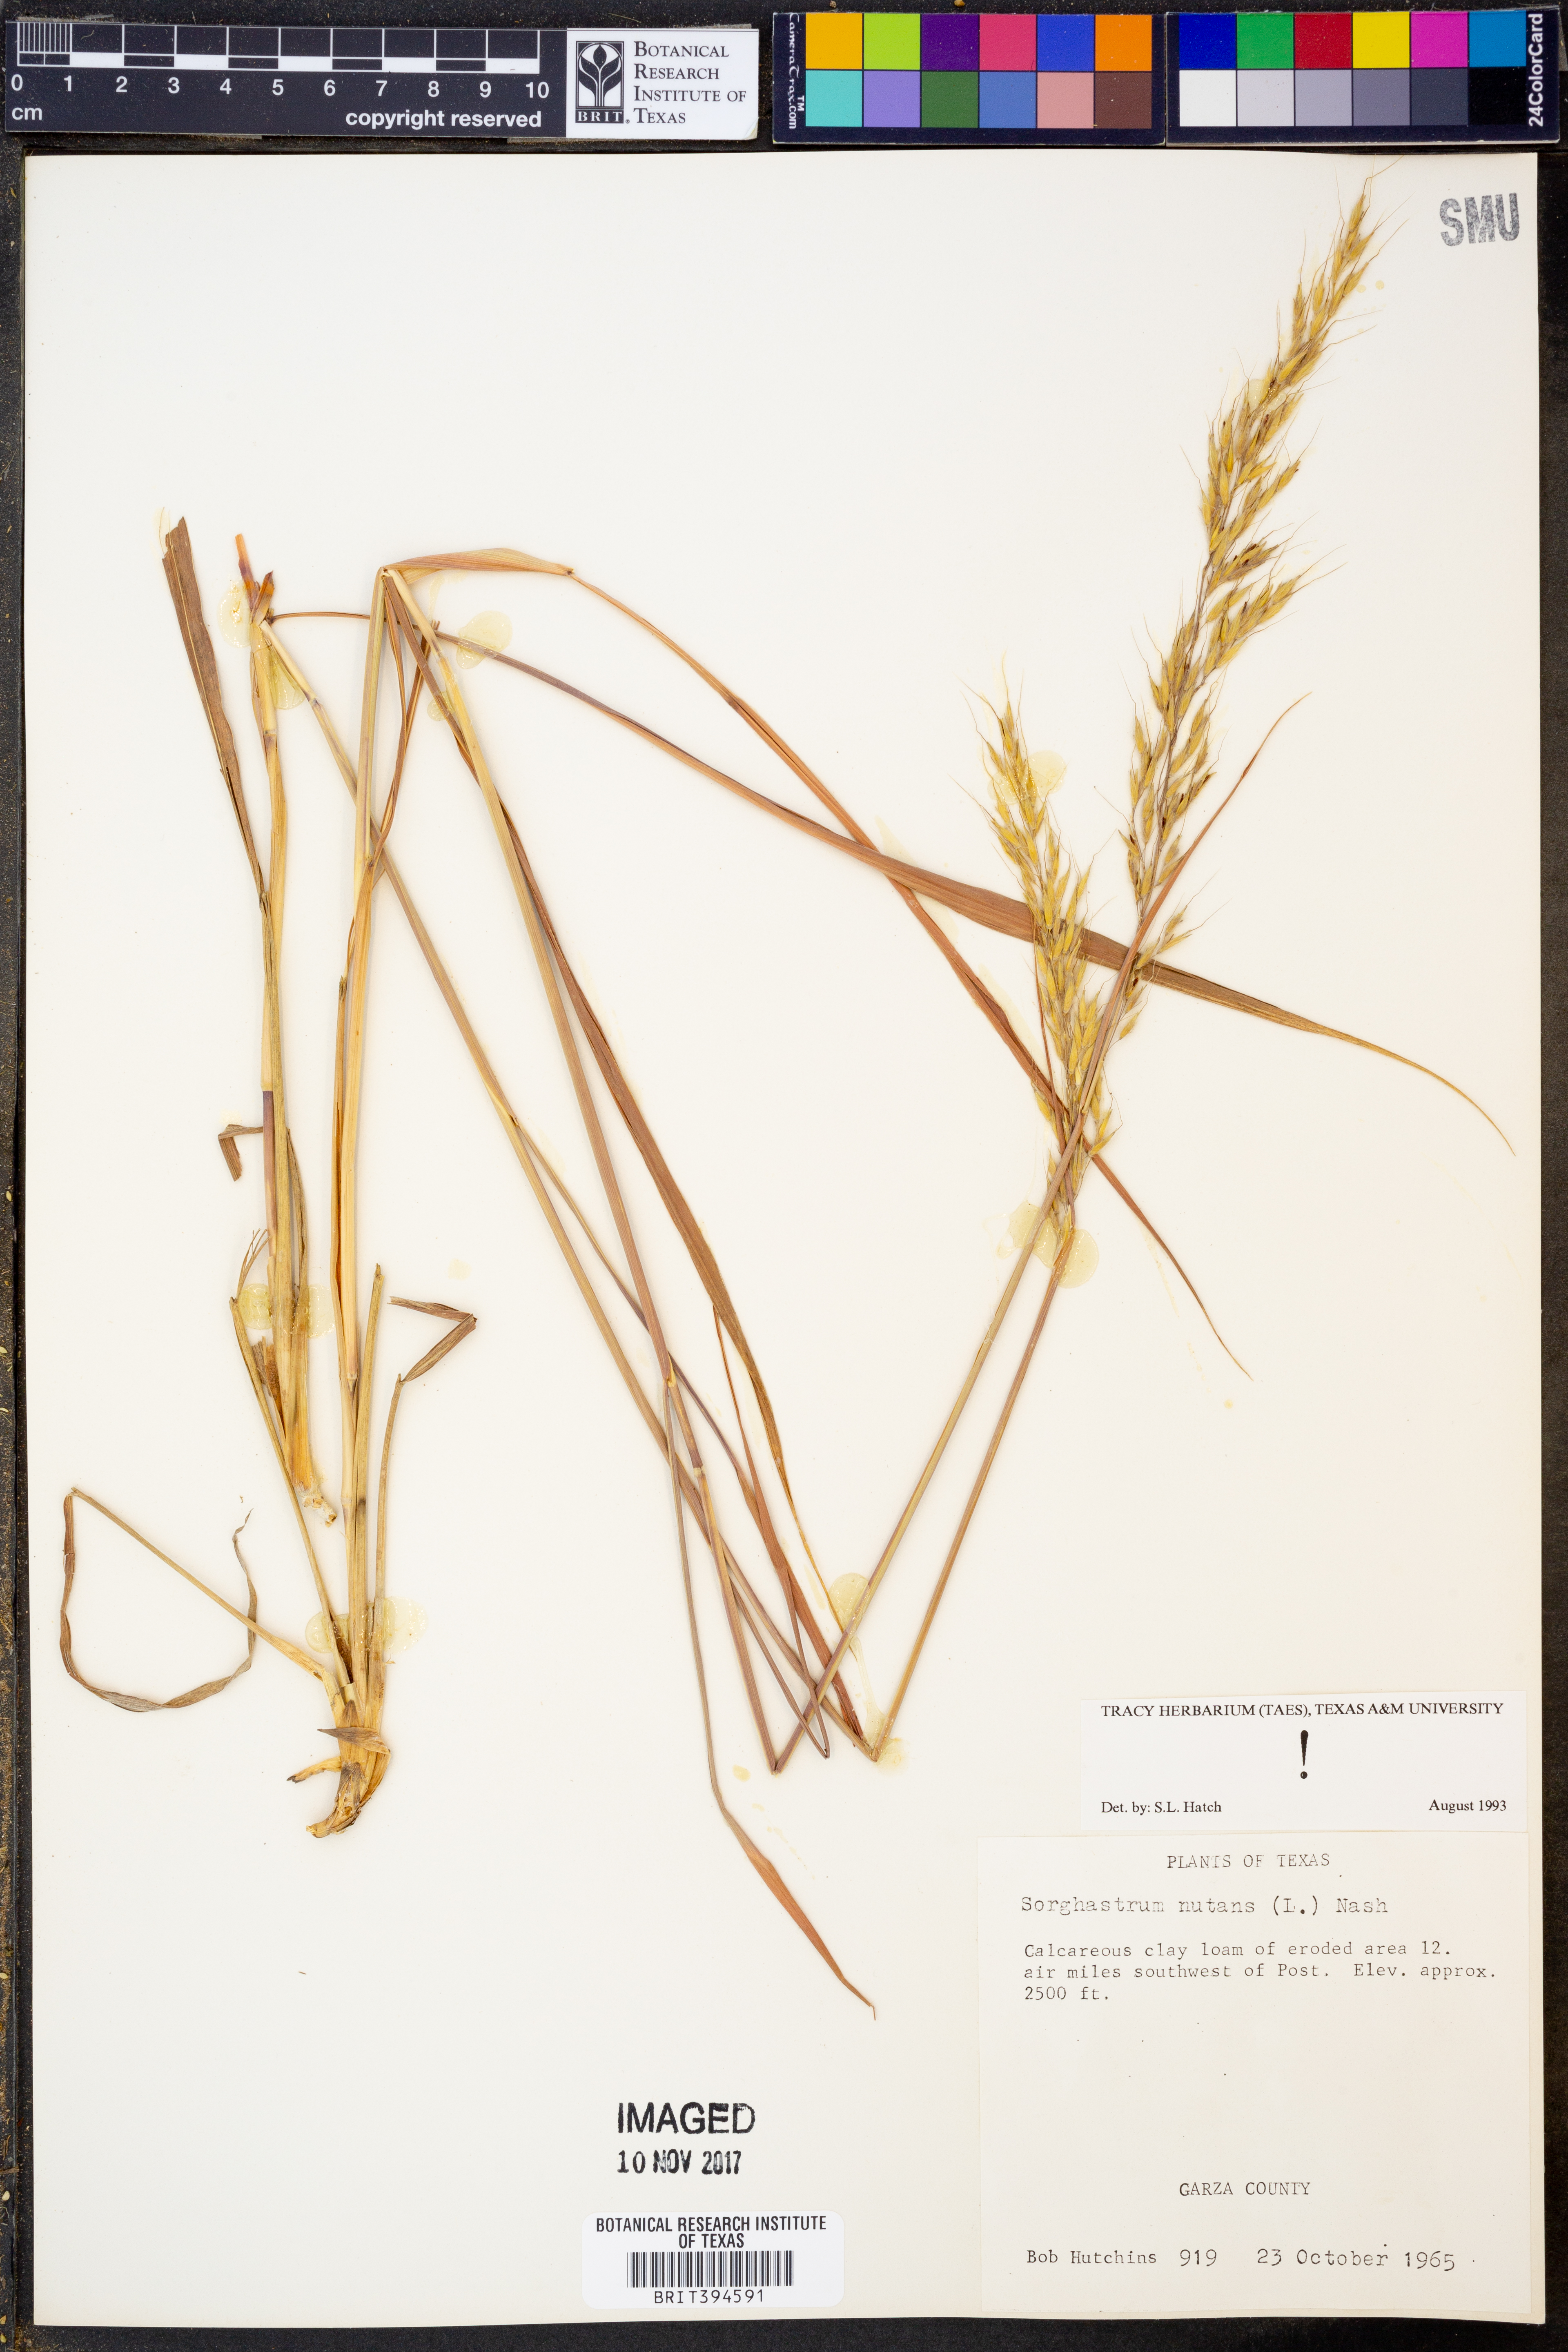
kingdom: Plantae
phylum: Tracheophyta
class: Liliopsida
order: Poales
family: Poaceae
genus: Sorghastrum
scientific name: Sorghastrum nutans
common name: Indian grass
